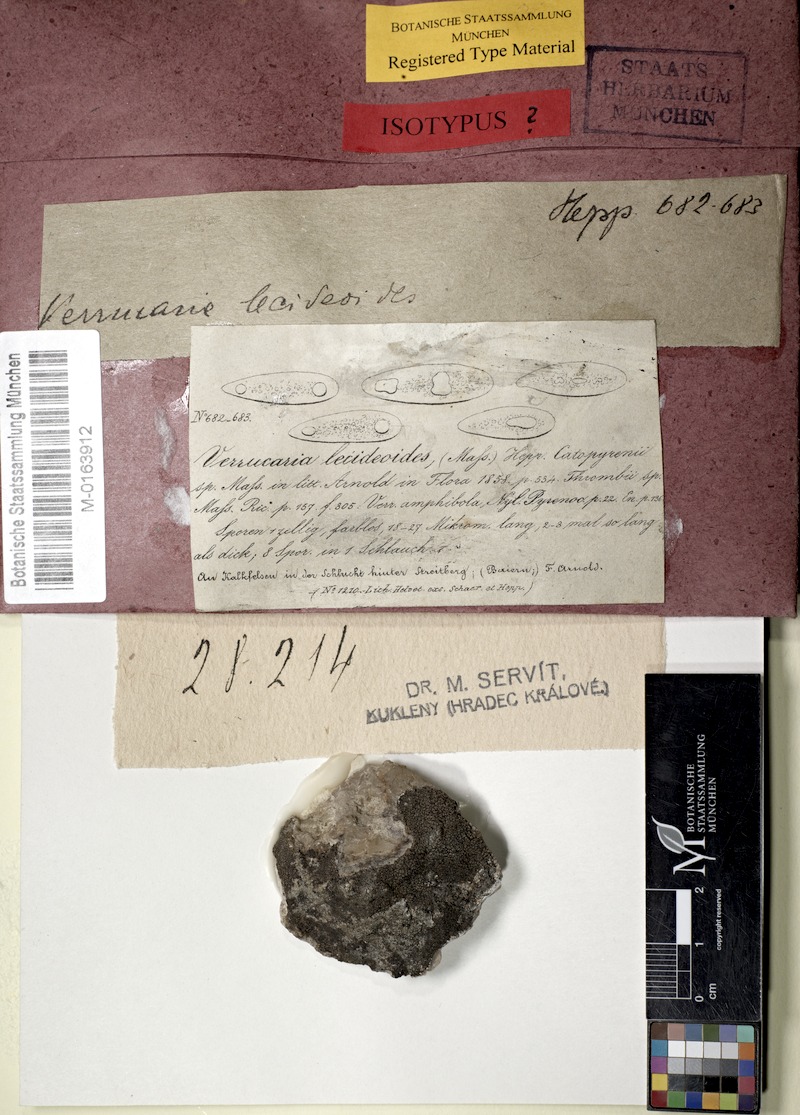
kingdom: Fungi
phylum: Ascomycota
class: Eurotiomycetes
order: Verrucariales
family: Verrucariaceae
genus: Verruculopsis
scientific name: Verruculopsis
